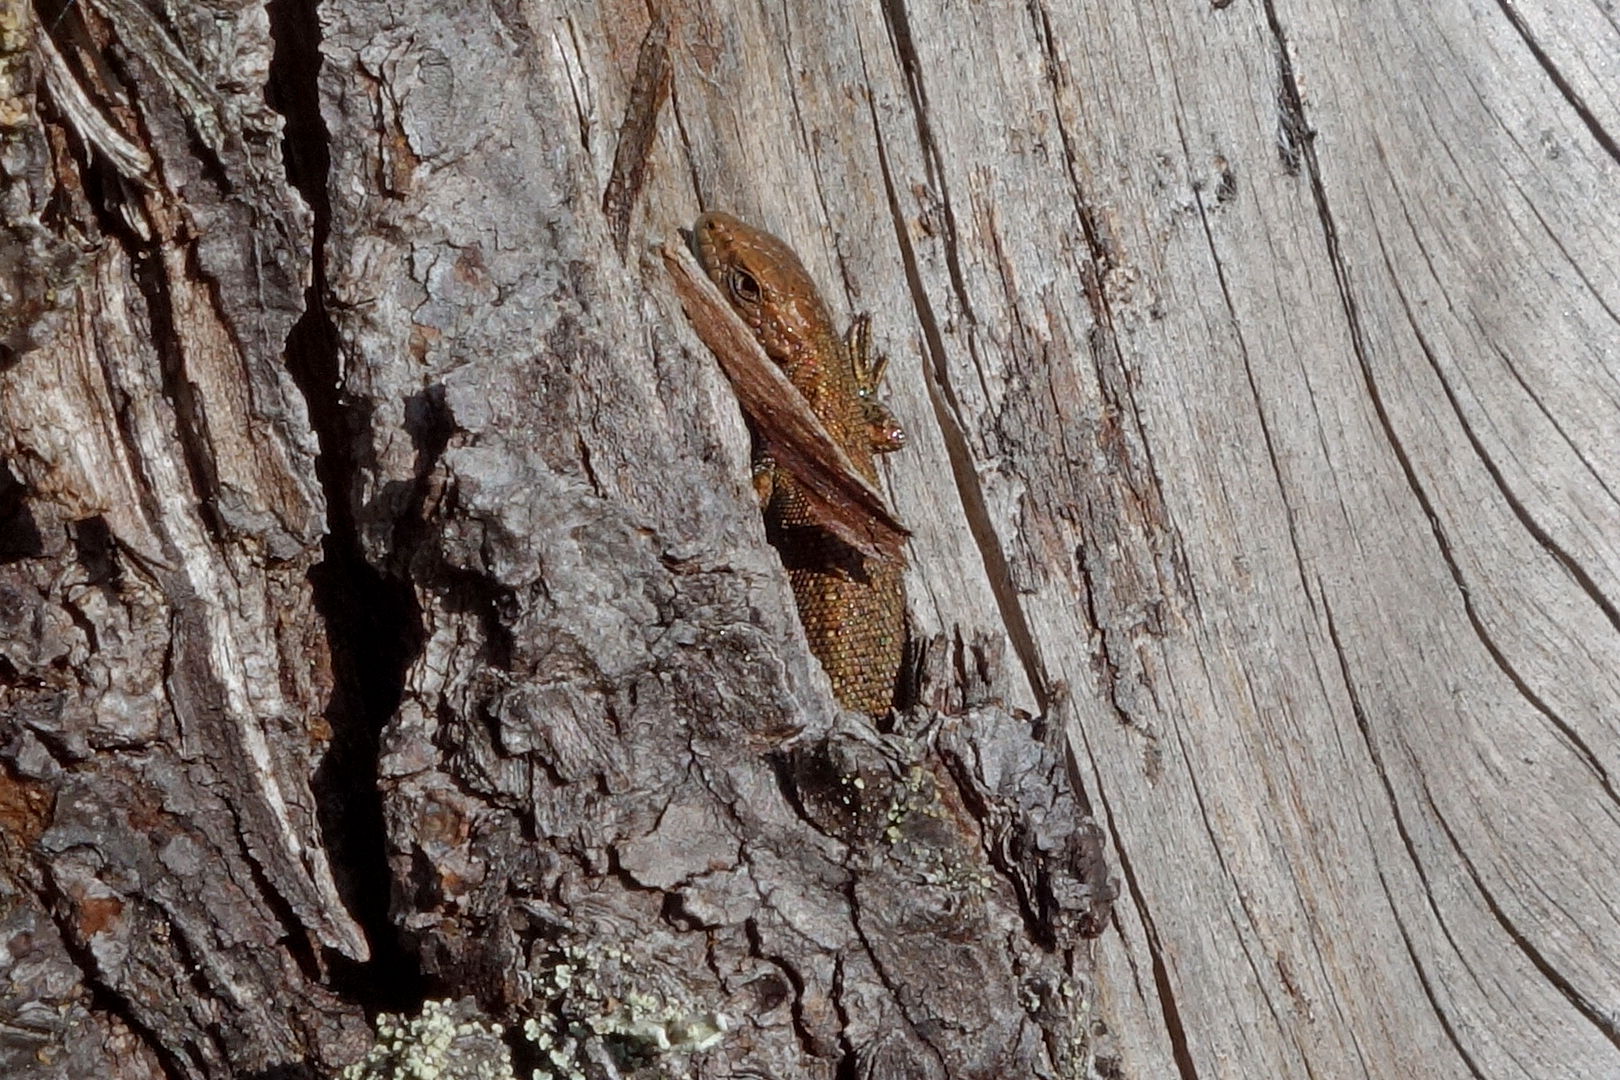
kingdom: Animalia
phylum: Chordata
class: Squamata
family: Lacertidae
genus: Zootoca
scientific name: Zootoca vivipara
